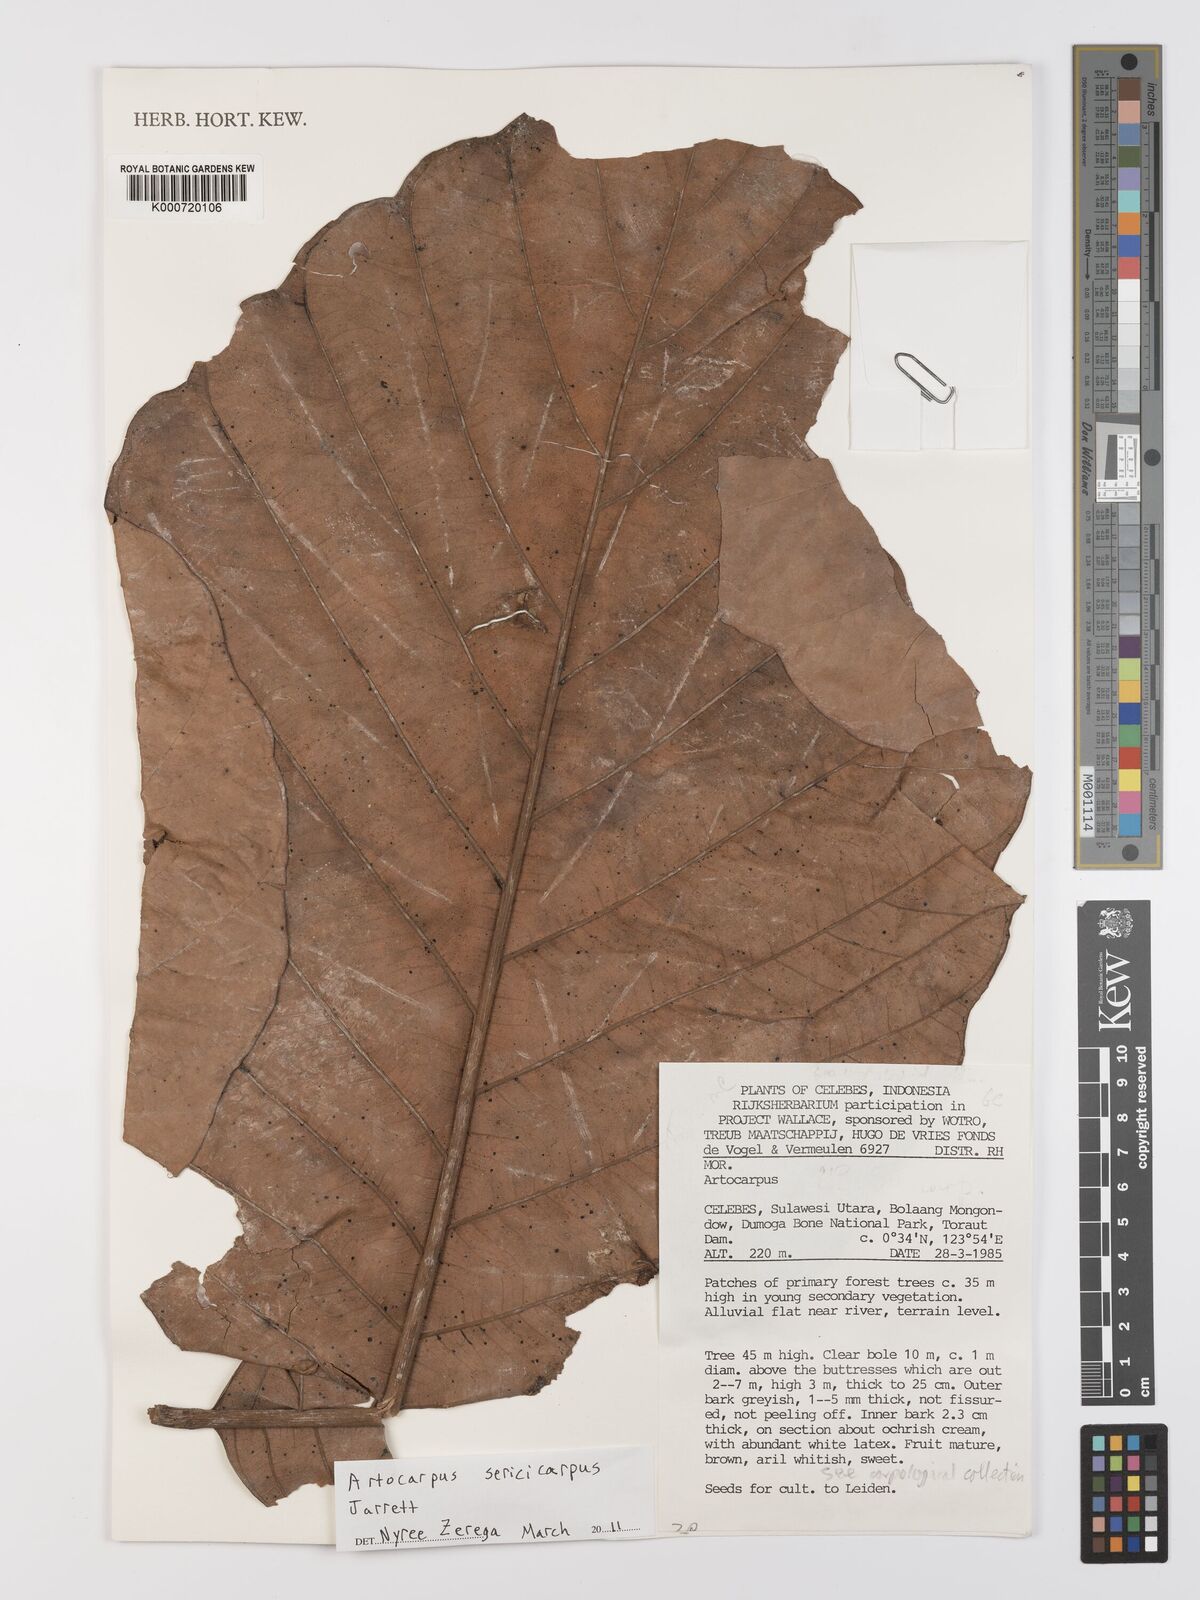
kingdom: Plantae
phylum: Tracheophyta
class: Magnoliopsida
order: Rosales
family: Moraceae
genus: Artocarpus
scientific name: Artocarpus sericicarpus
